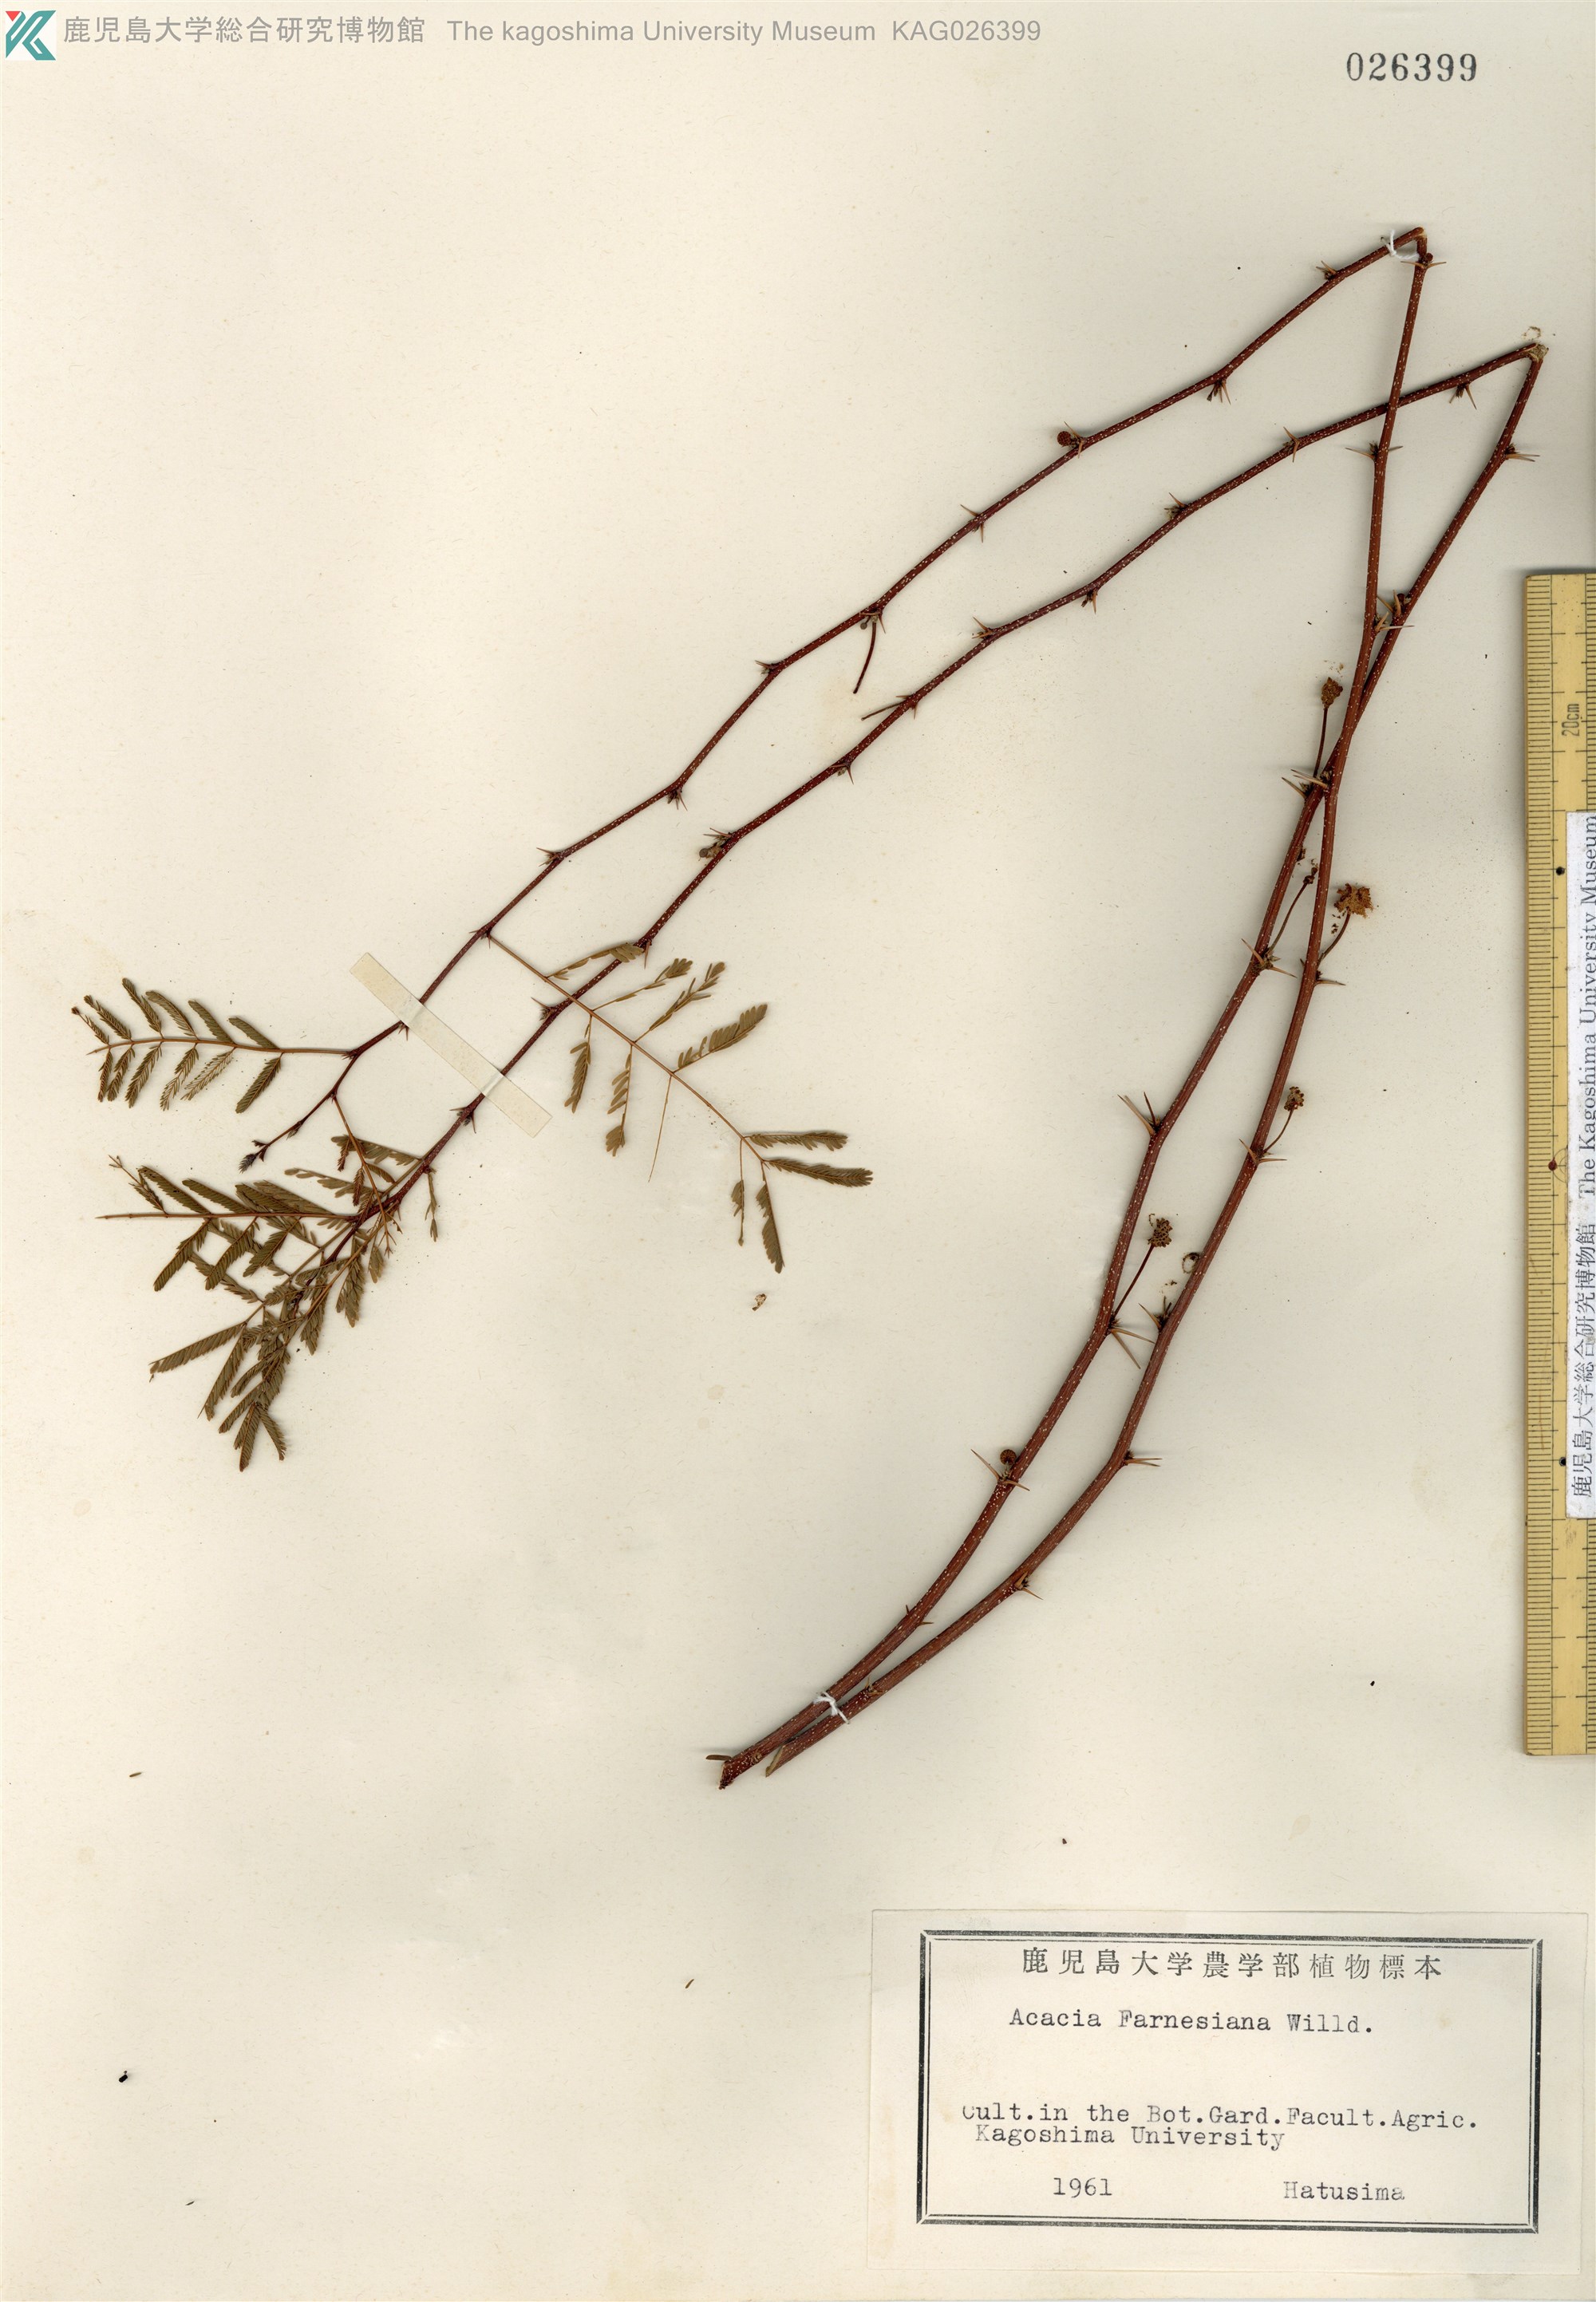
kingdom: Plantae
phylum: Tracheophyta
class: Magnoliopsida
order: Fabales
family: Fabaceae
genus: Vachellia
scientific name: Vachellia farnesiana
